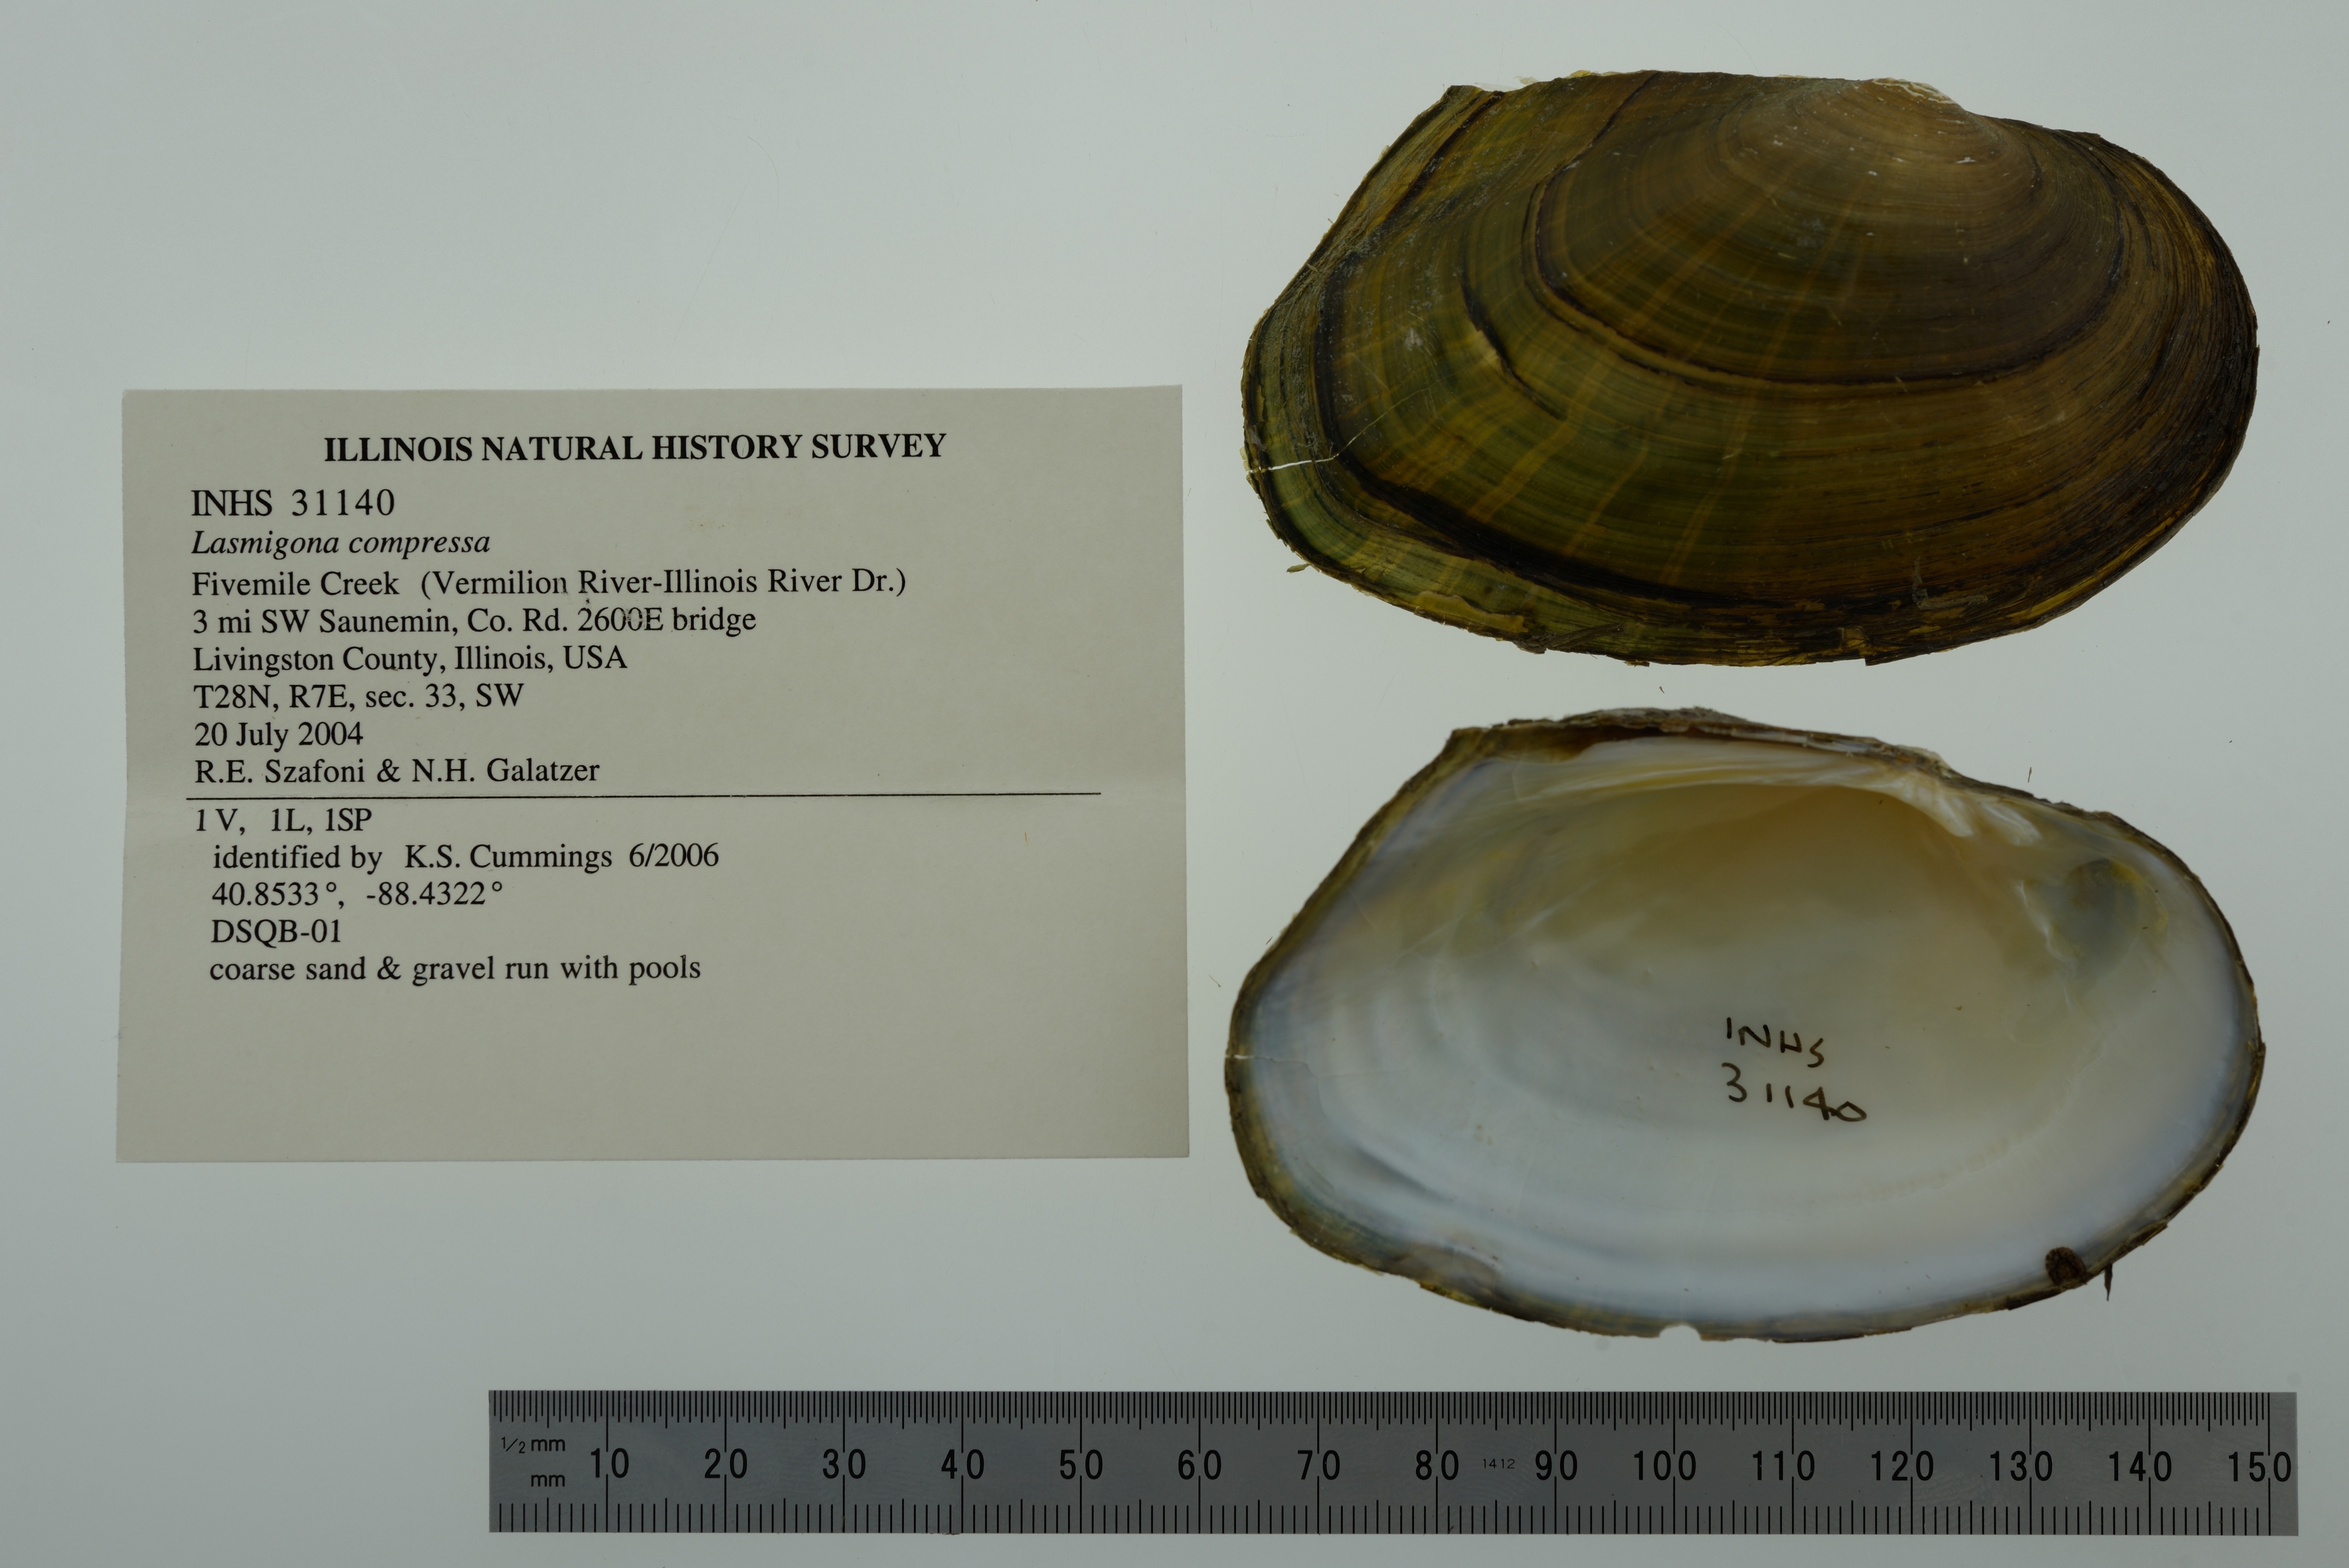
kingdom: Animalia
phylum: Mollusca
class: Bivalvia
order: Unionida
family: Unionidae
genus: Lasmigona
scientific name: Lasmigona compressa
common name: Creek heelsplitter
